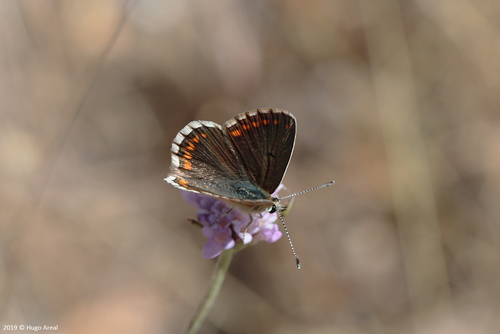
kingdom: Animalia
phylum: Arthropoda
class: Insecta
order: Lepidoptera
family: Lycaenidae
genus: Aricia
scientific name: Aricia cramera
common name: Eschscholtz´s brown  argus
